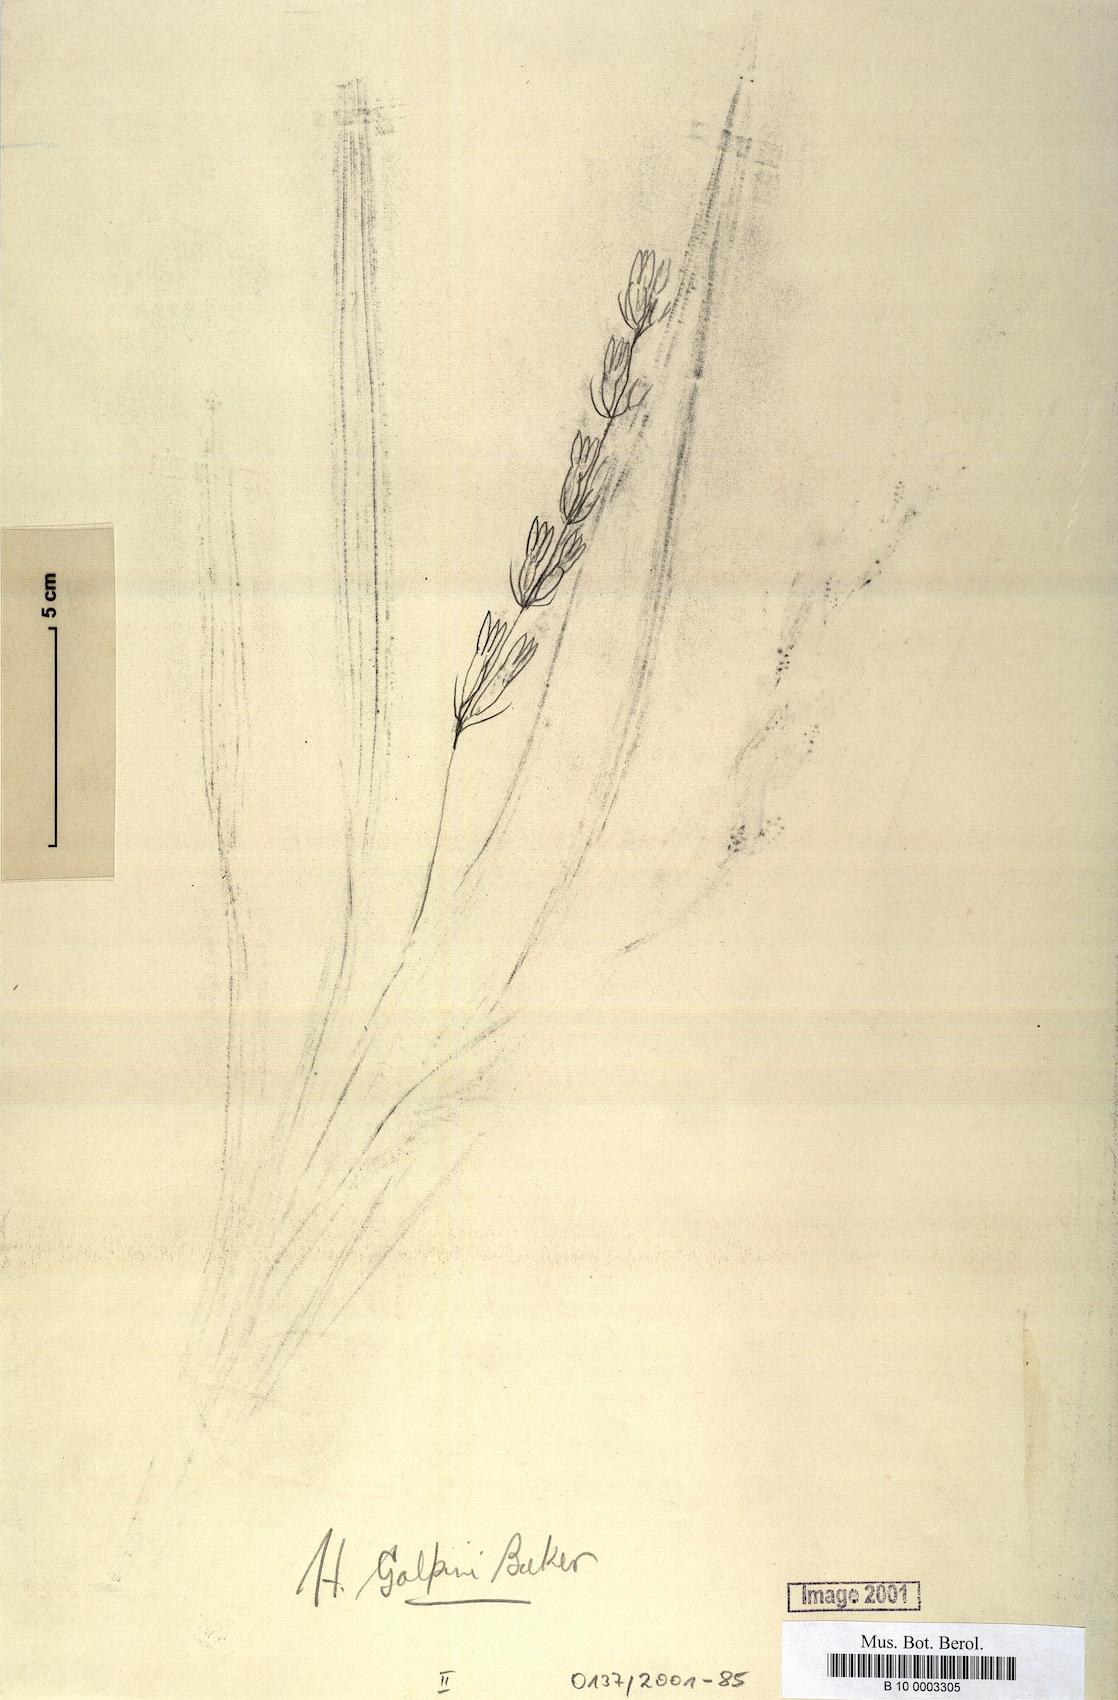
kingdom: Plantae
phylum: Tracheophyta
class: Liliopsida
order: Asparagales
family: Hypoxidaceae
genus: Hypoxis
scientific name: Hypoxis galpinii
